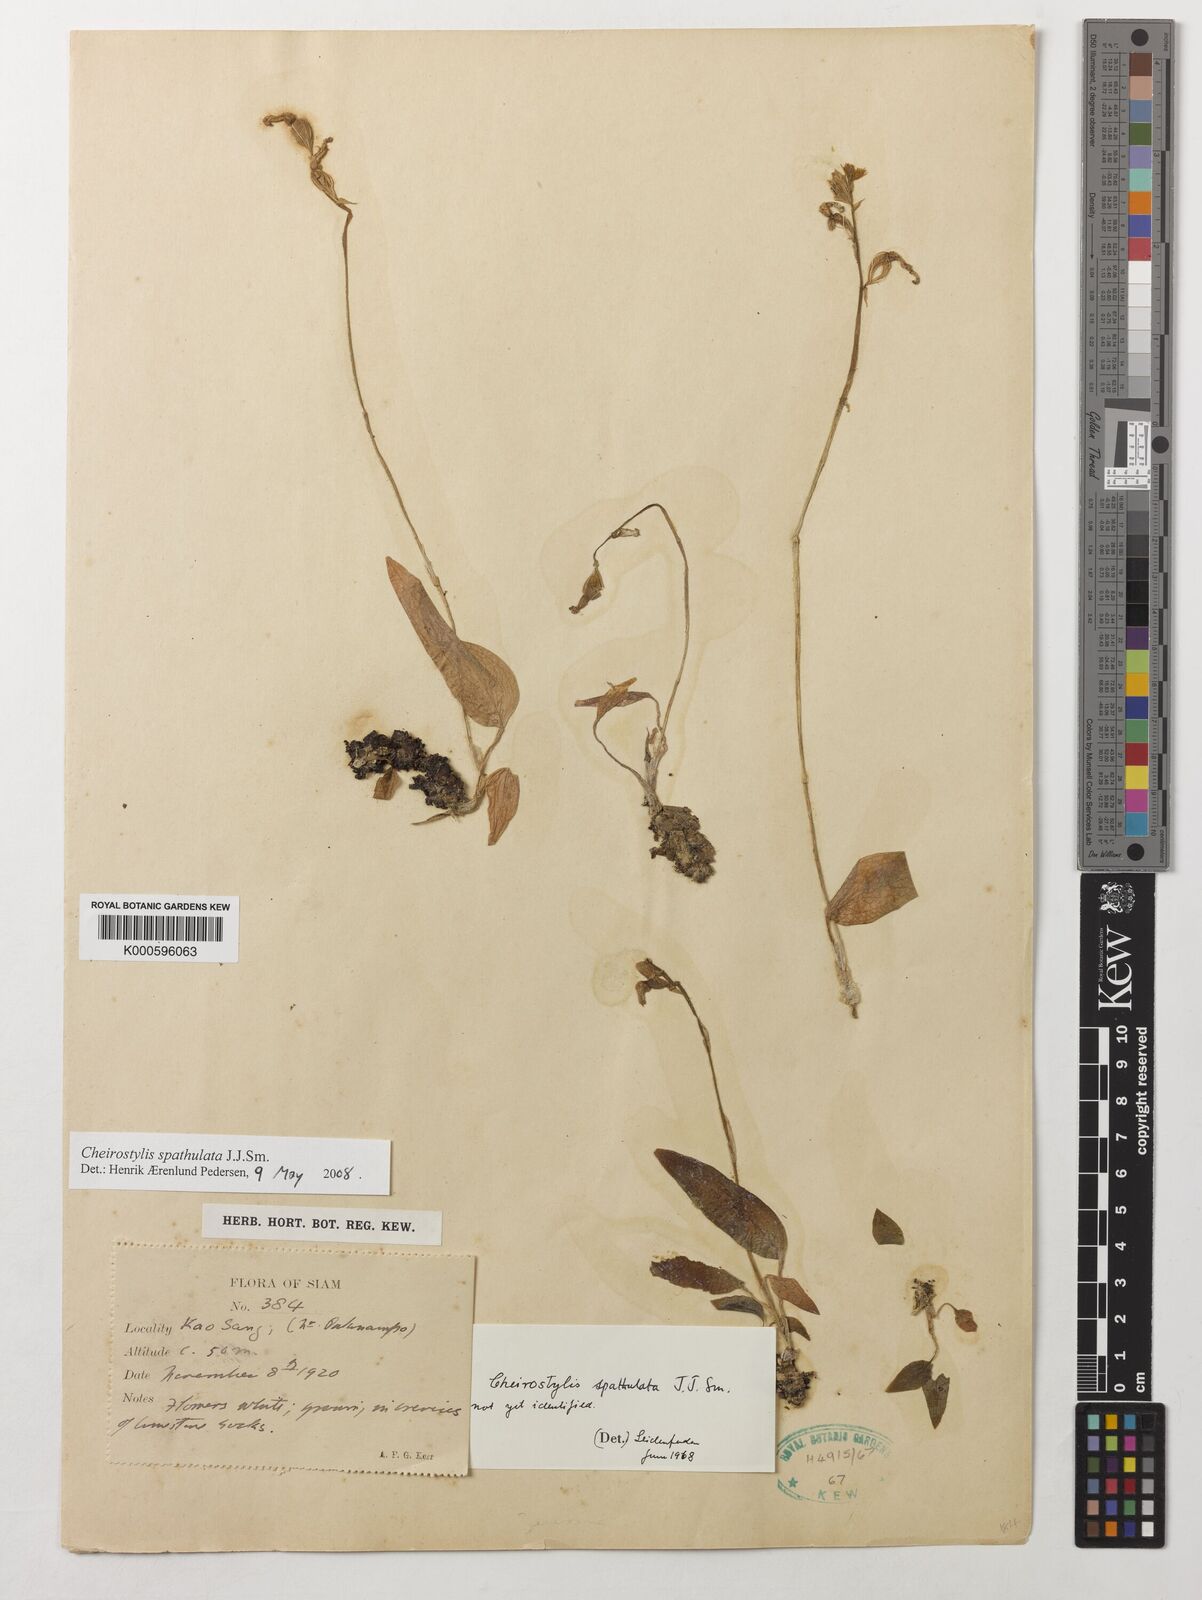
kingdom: Plantae
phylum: Tracheophyta
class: Liliopsida
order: Asparagales
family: Orchidaceae
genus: Cheirostylis
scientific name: Cheirostylis spathulata
